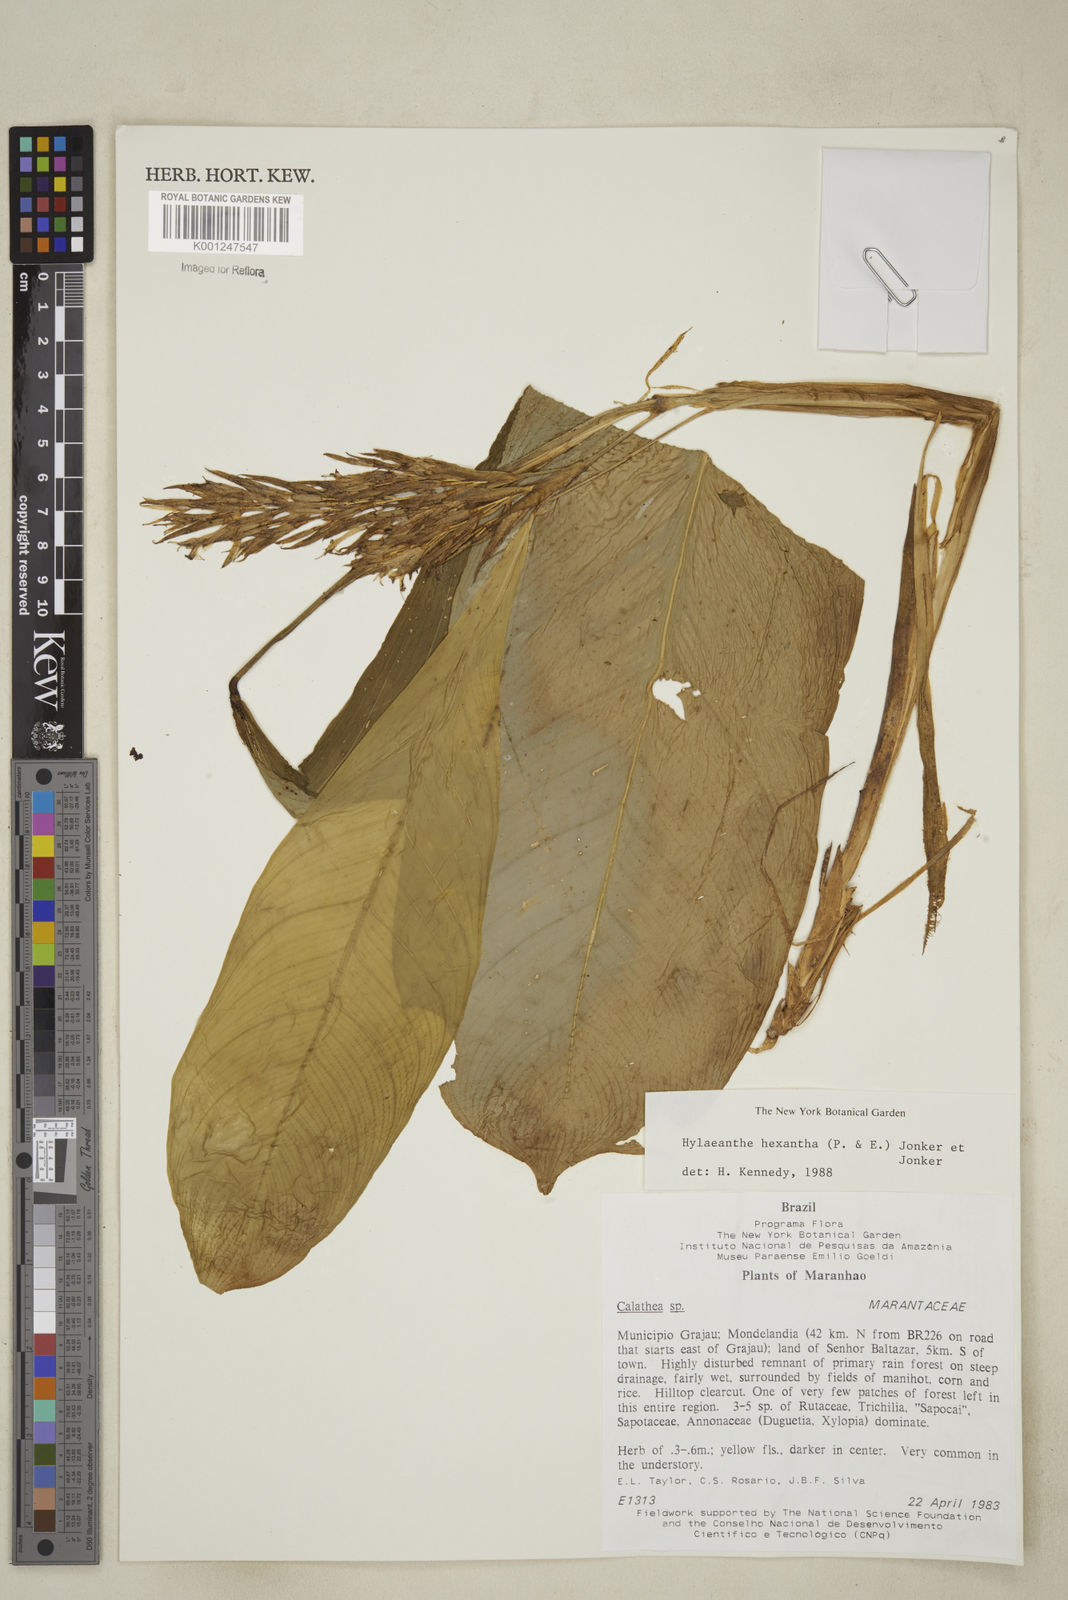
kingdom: Plantae
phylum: Tracheophyta
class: Liliopsida
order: Zingiberales
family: Marantaceae
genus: Hylaeanthe
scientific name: Hylaeanthe hexantha
